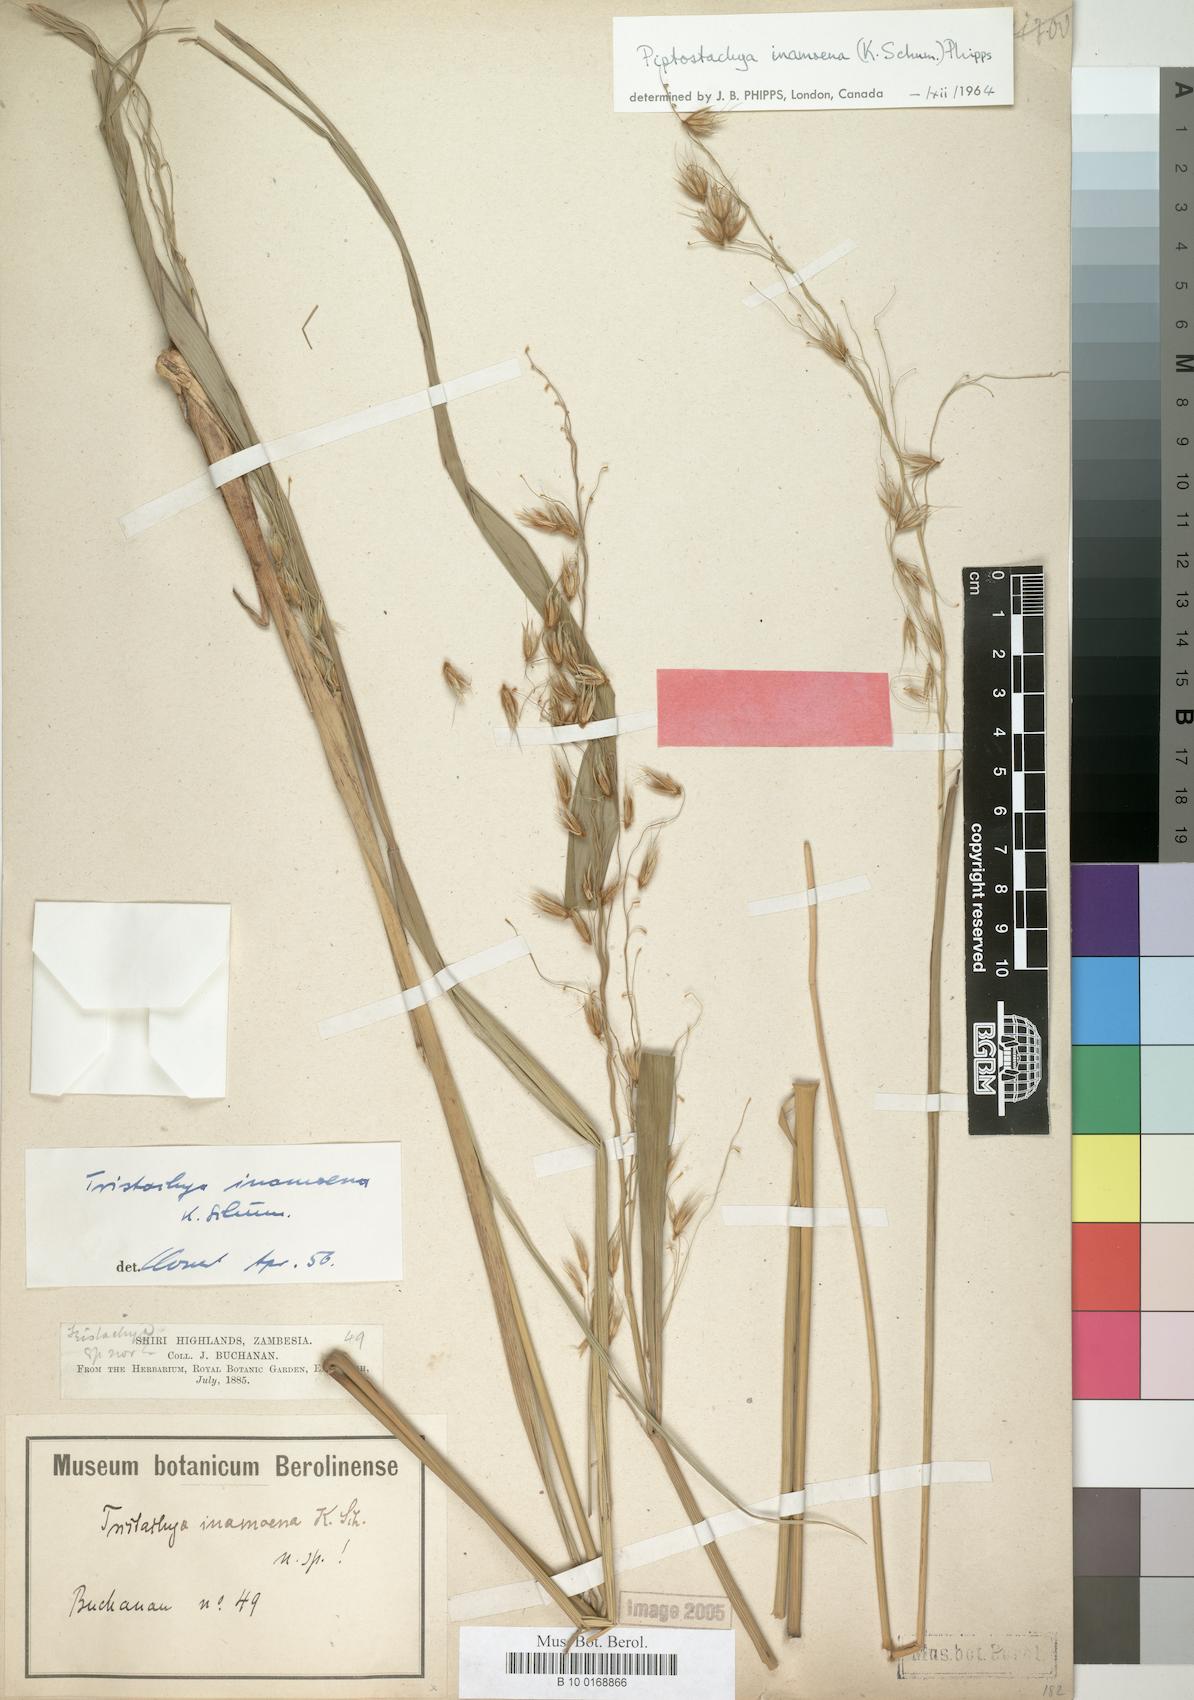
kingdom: Plantae
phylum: Tracheophyta
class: Liliopsida
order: Poales
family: Poaceae
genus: Zonotriche
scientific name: Zonotriche inamoena
